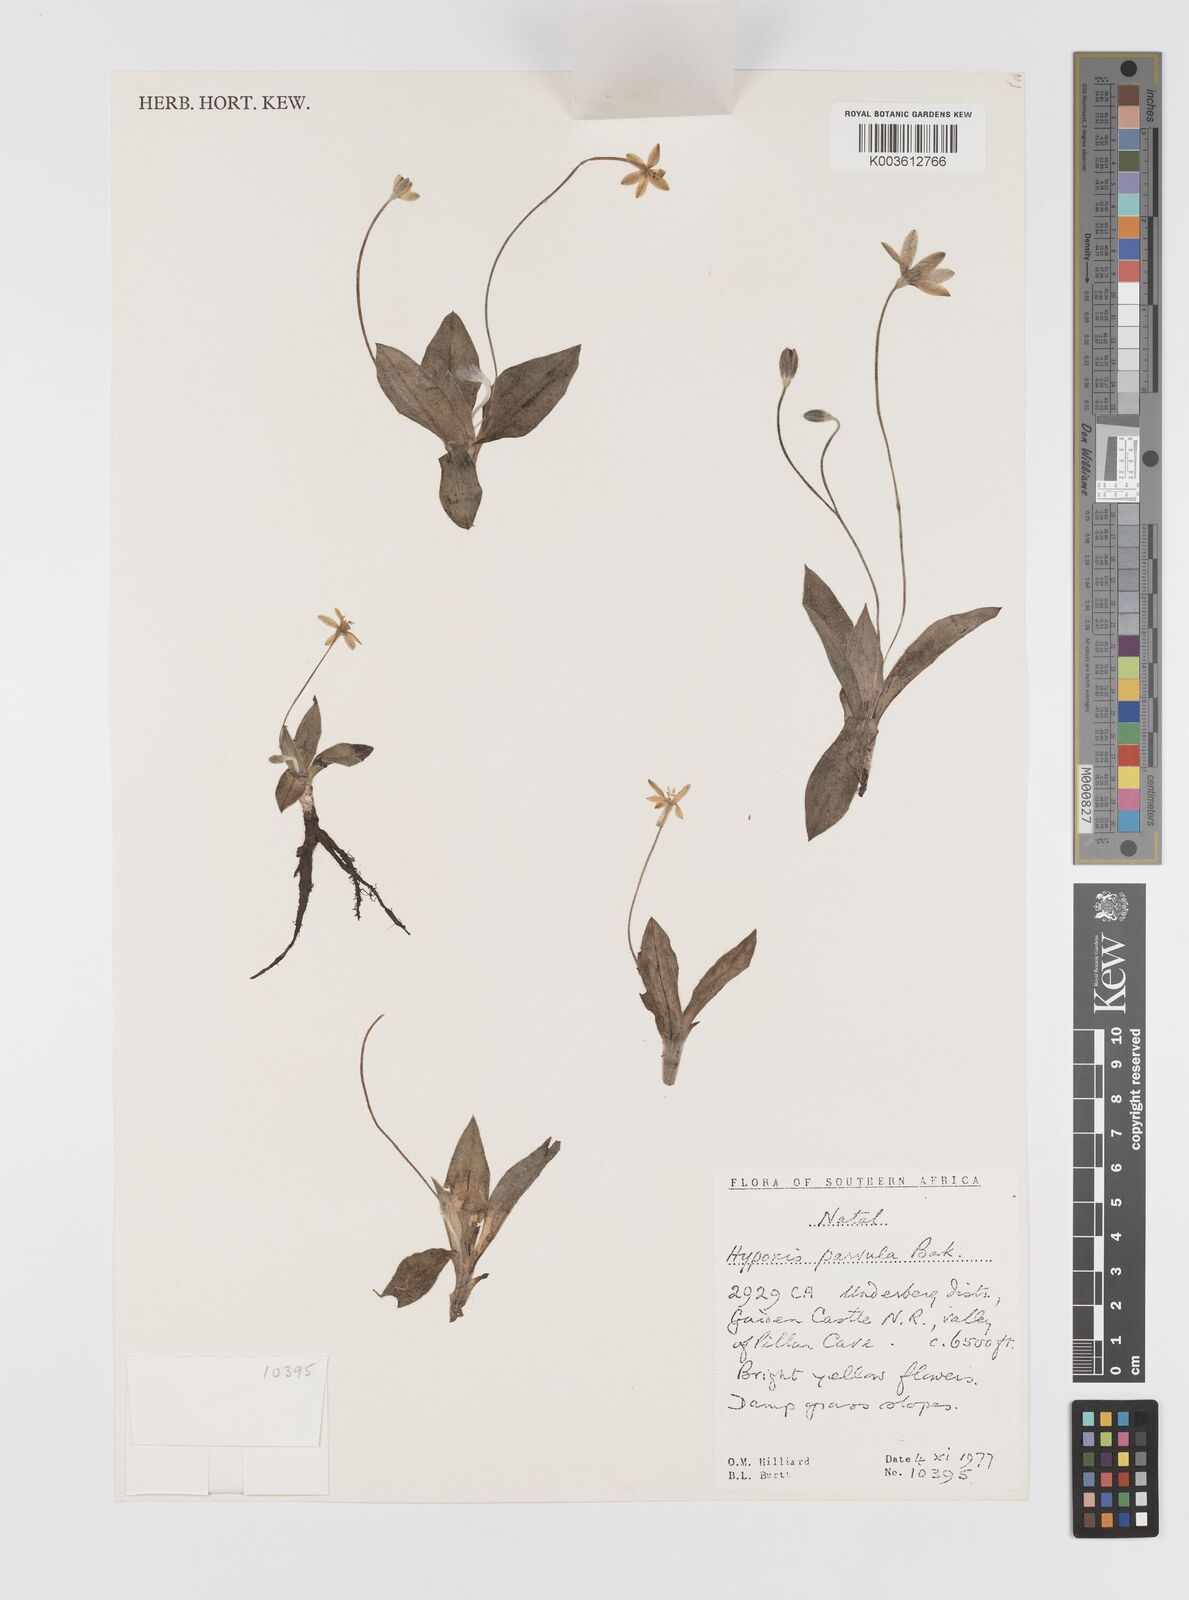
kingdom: Plantae
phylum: Tracheophyta
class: Liliopsida
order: Asparagales
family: Hypoxidaceae
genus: Hypoxis
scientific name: Hypoxis parvula
